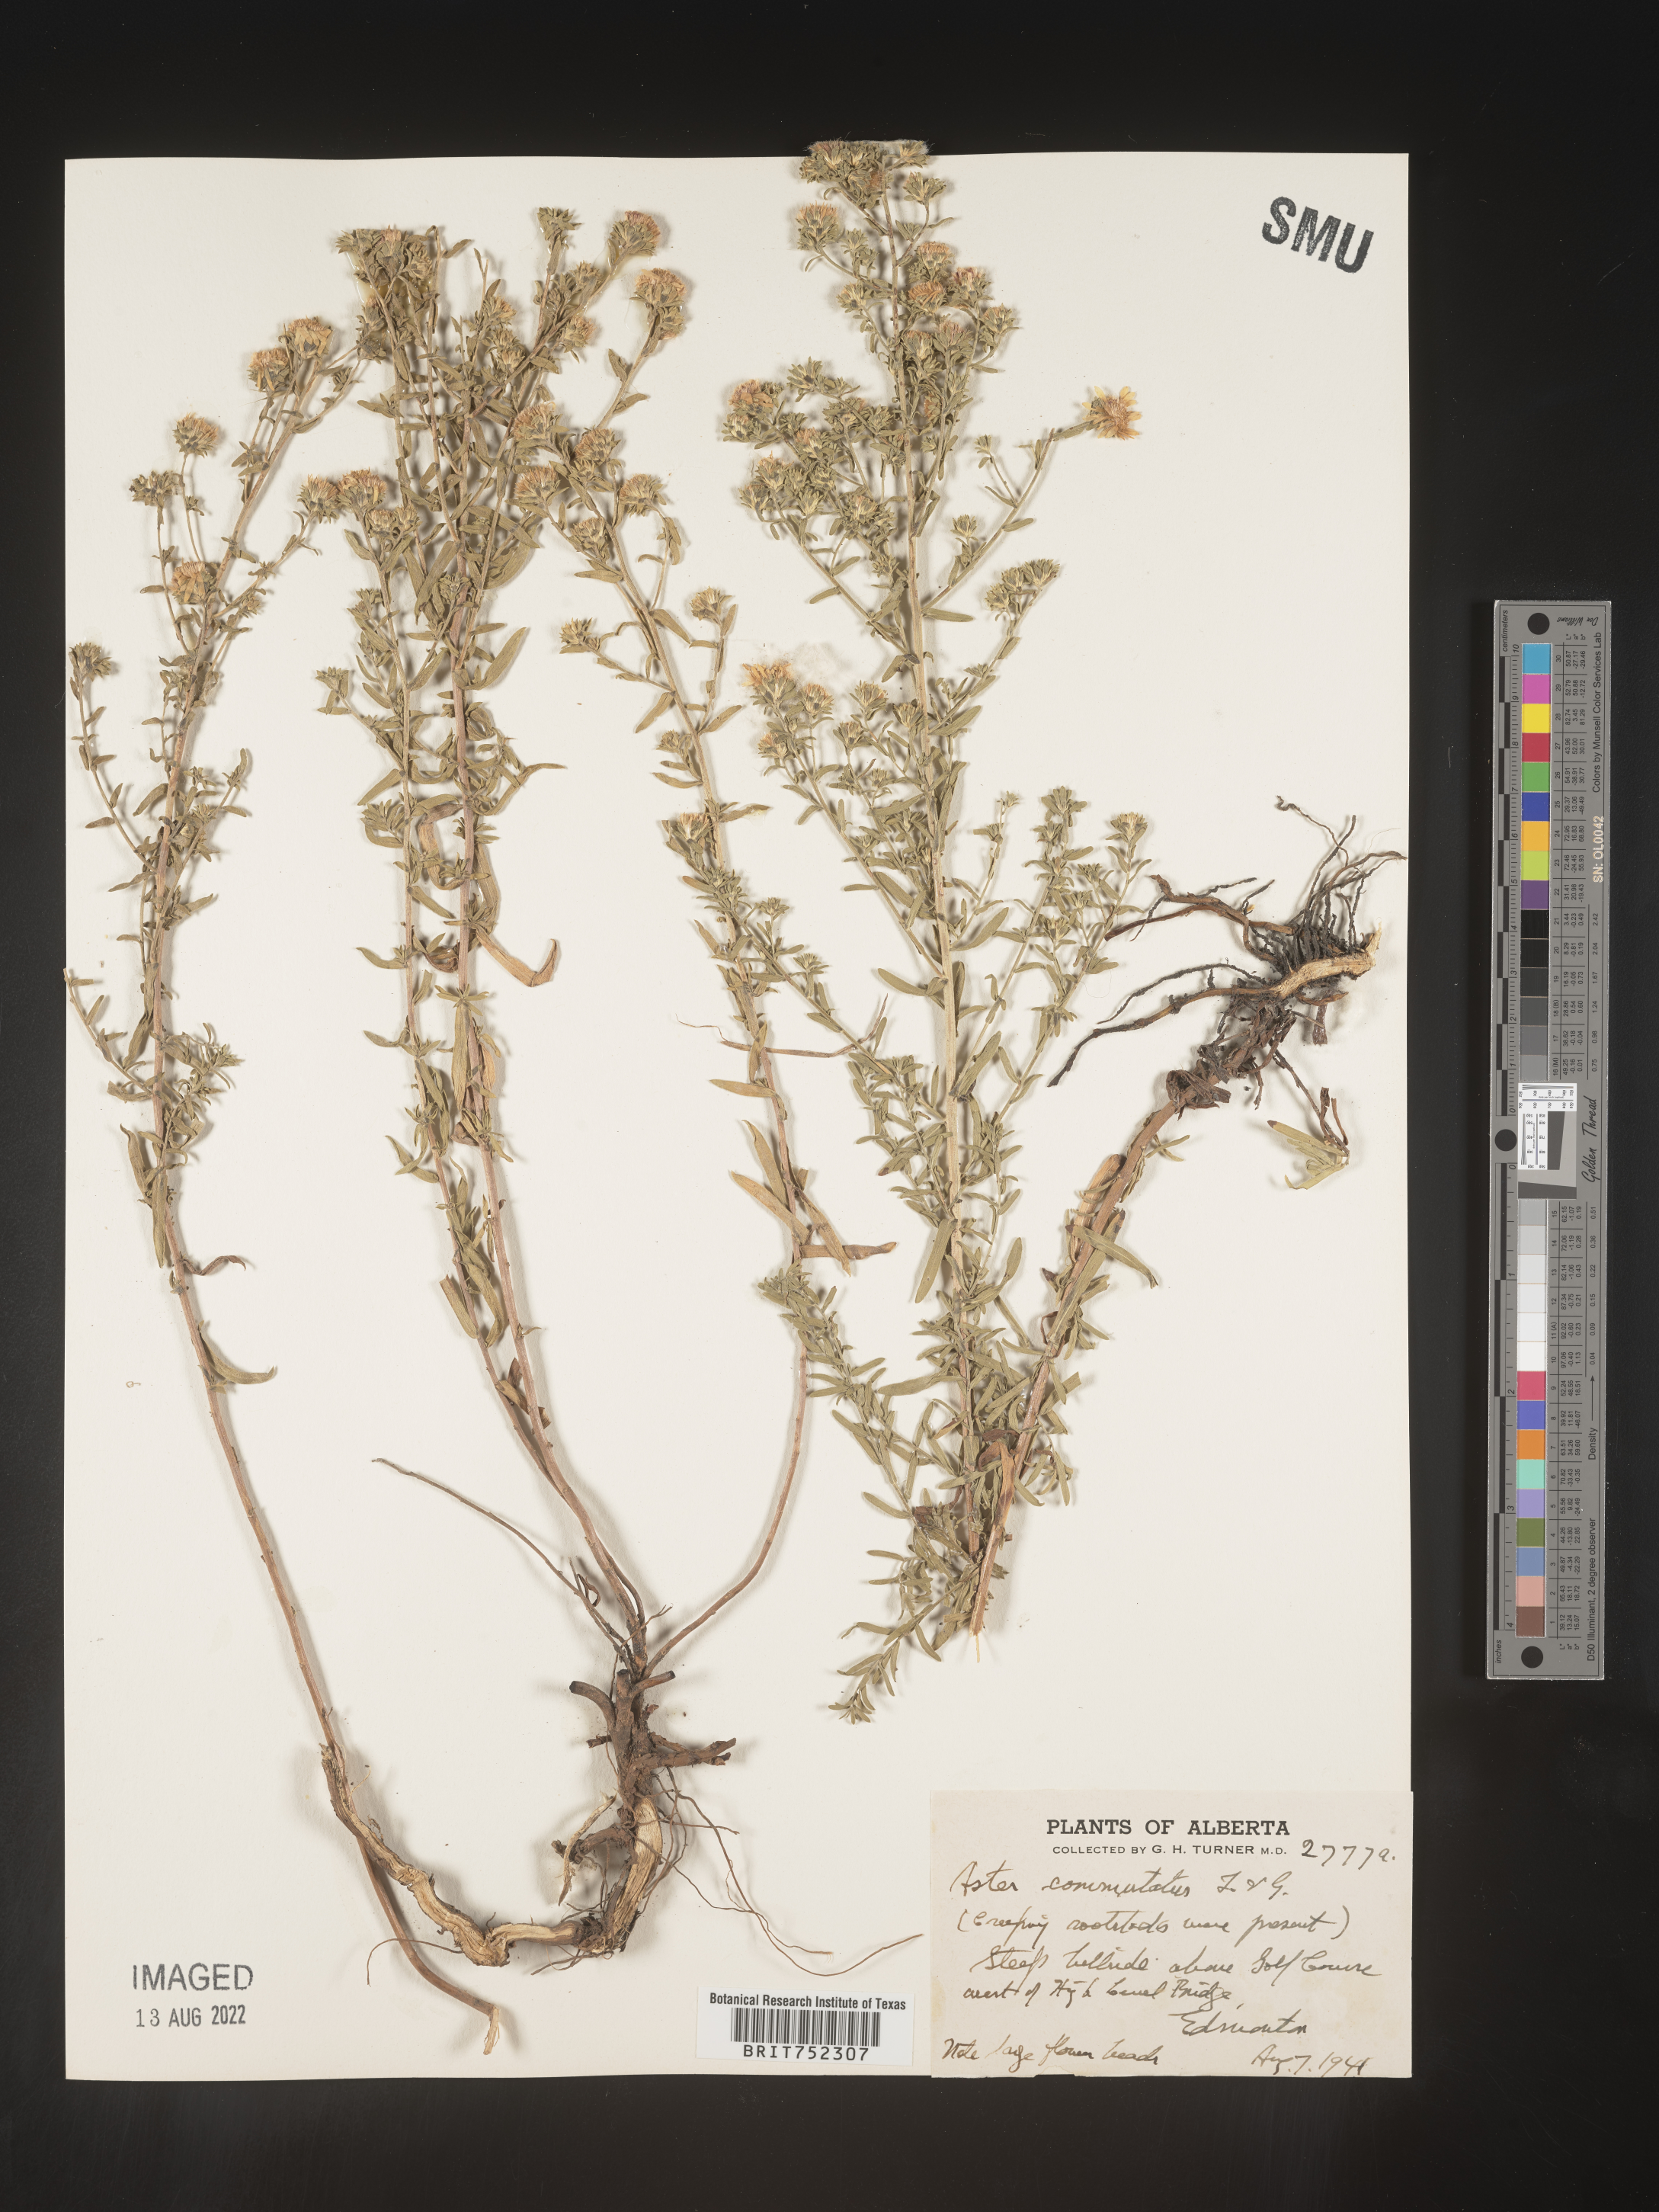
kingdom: Plantae
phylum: Tracheophyta
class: Magnoliopsida
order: Asterales
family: Asteraceae
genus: Symphyotrichum
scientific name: Symphyotrichum falcatum
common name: Creeping white prairie aster
